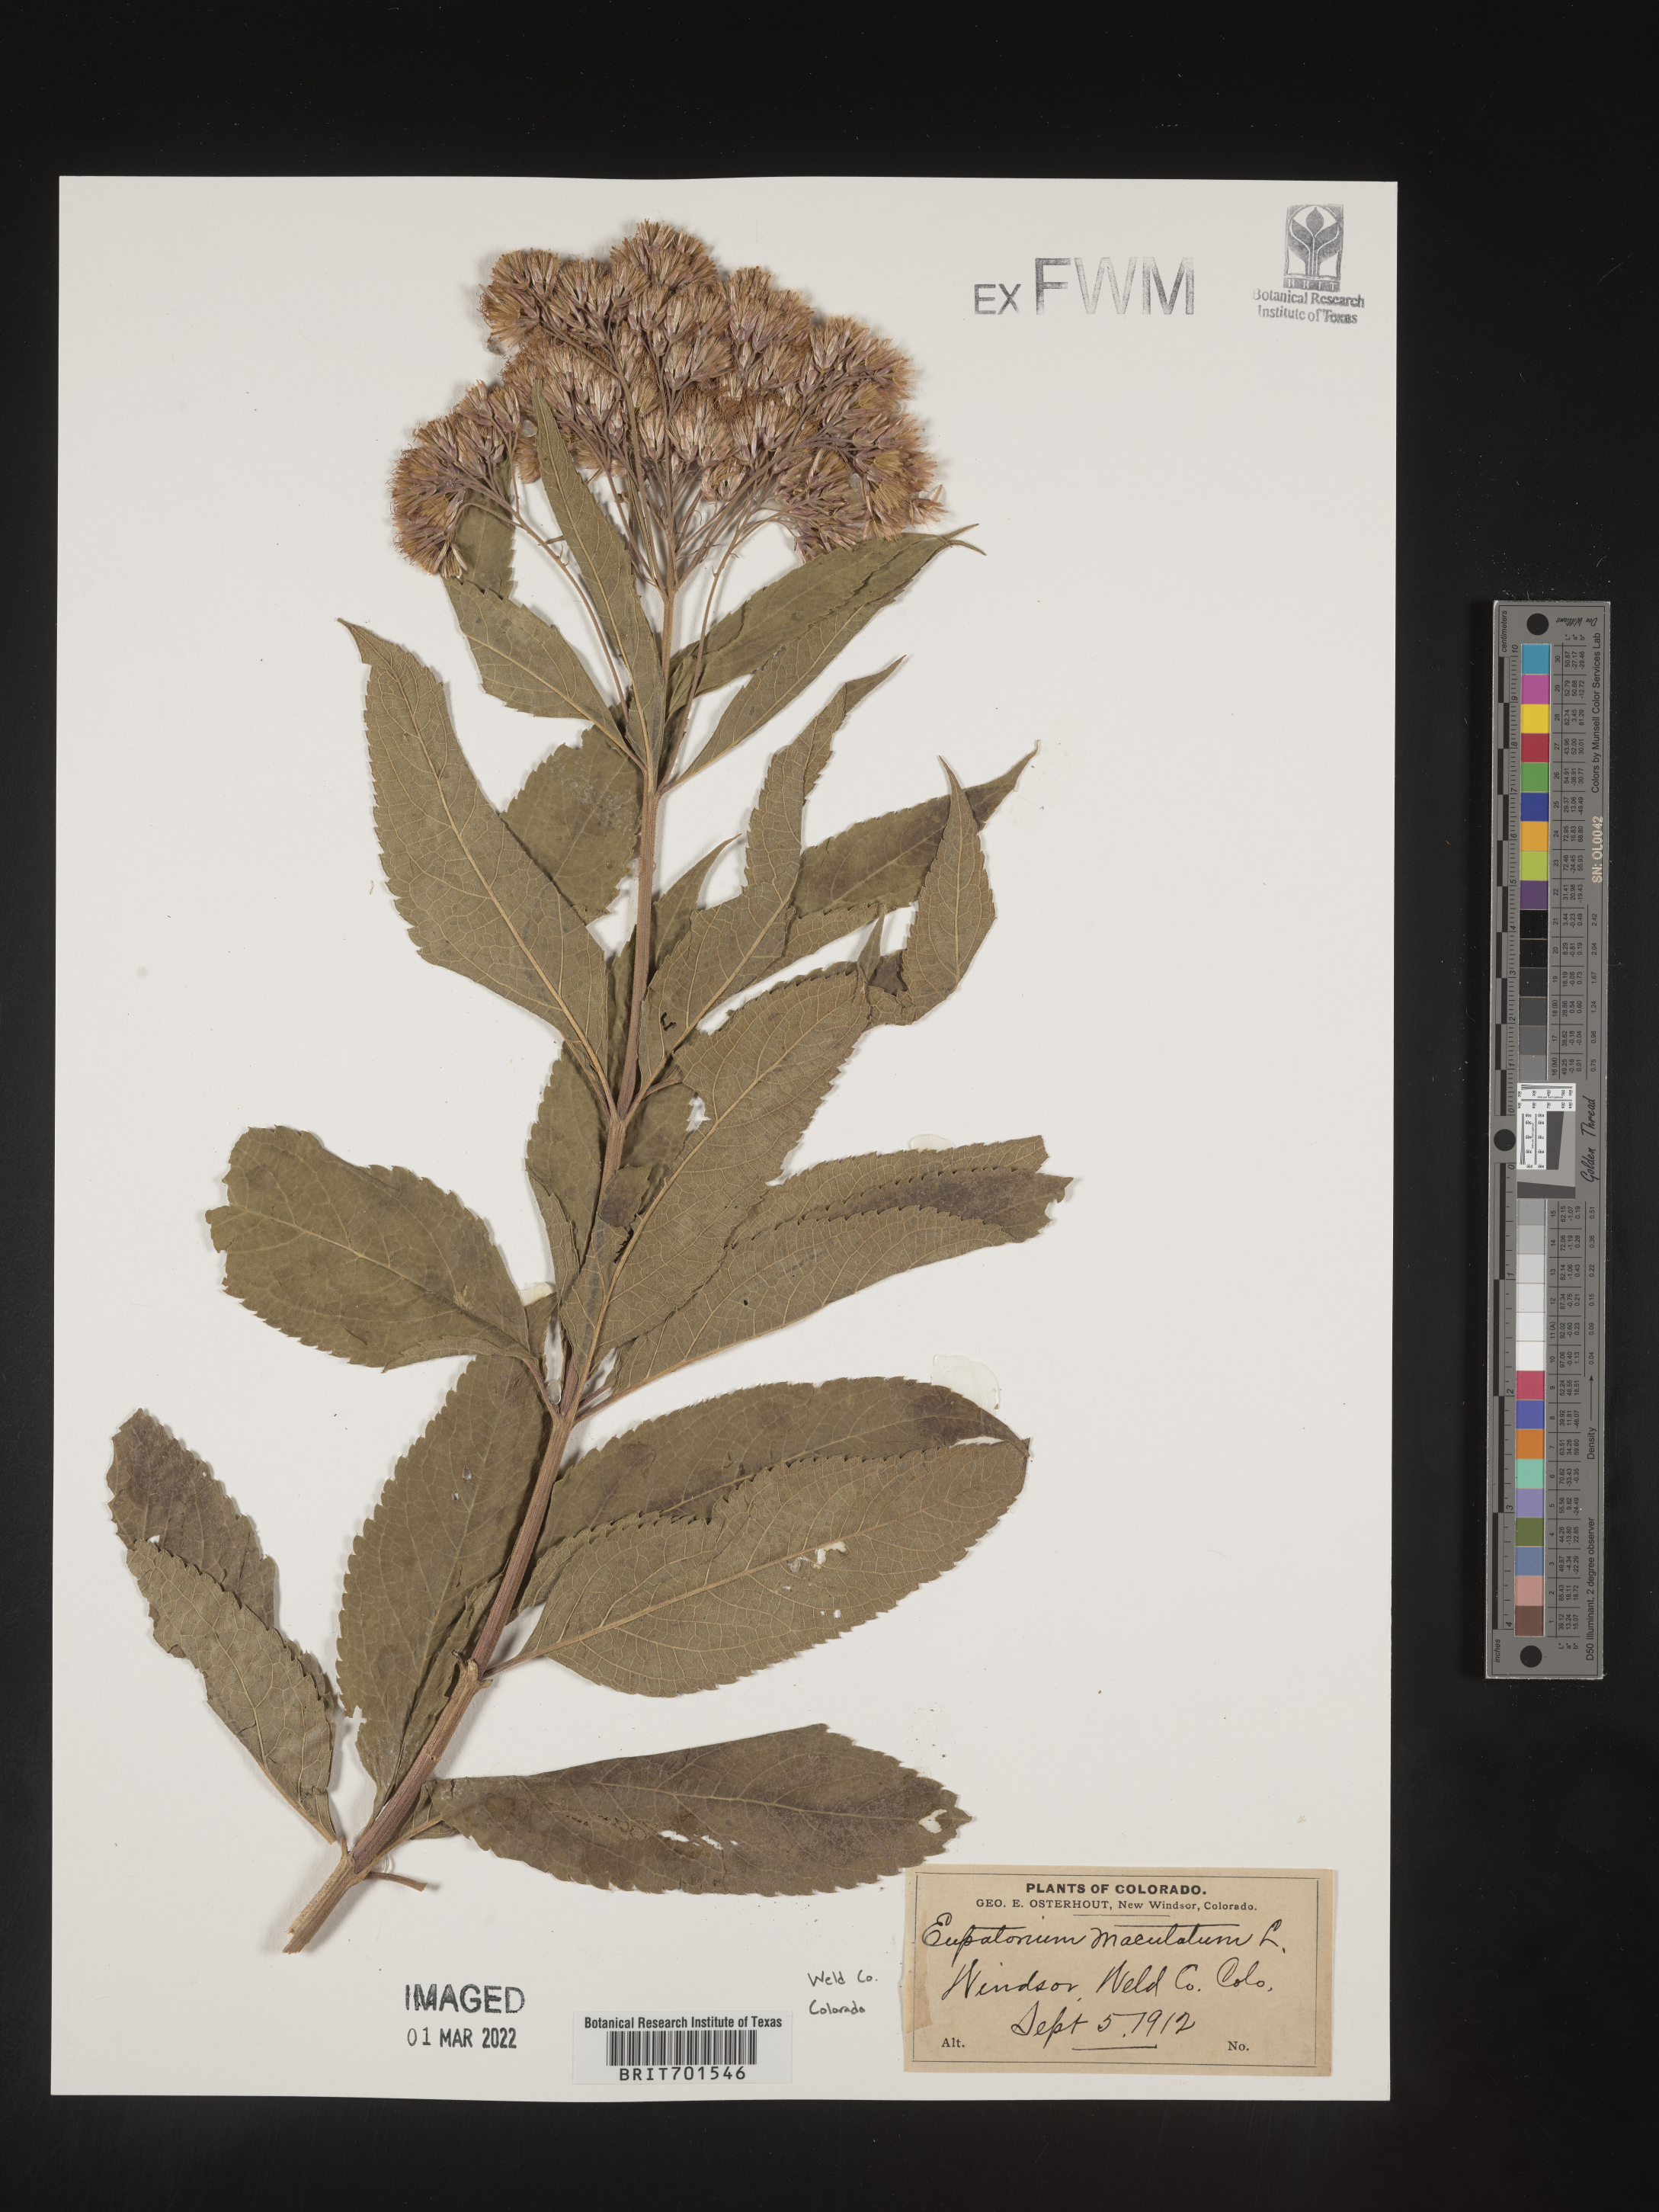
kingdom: Plantae
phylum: Tracheophyta
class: Magnoliopsida
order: Asterales
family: Asteraceae
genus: Eutrochium
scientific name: Eutrochium maculatum
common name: Spotted joe pye weed
